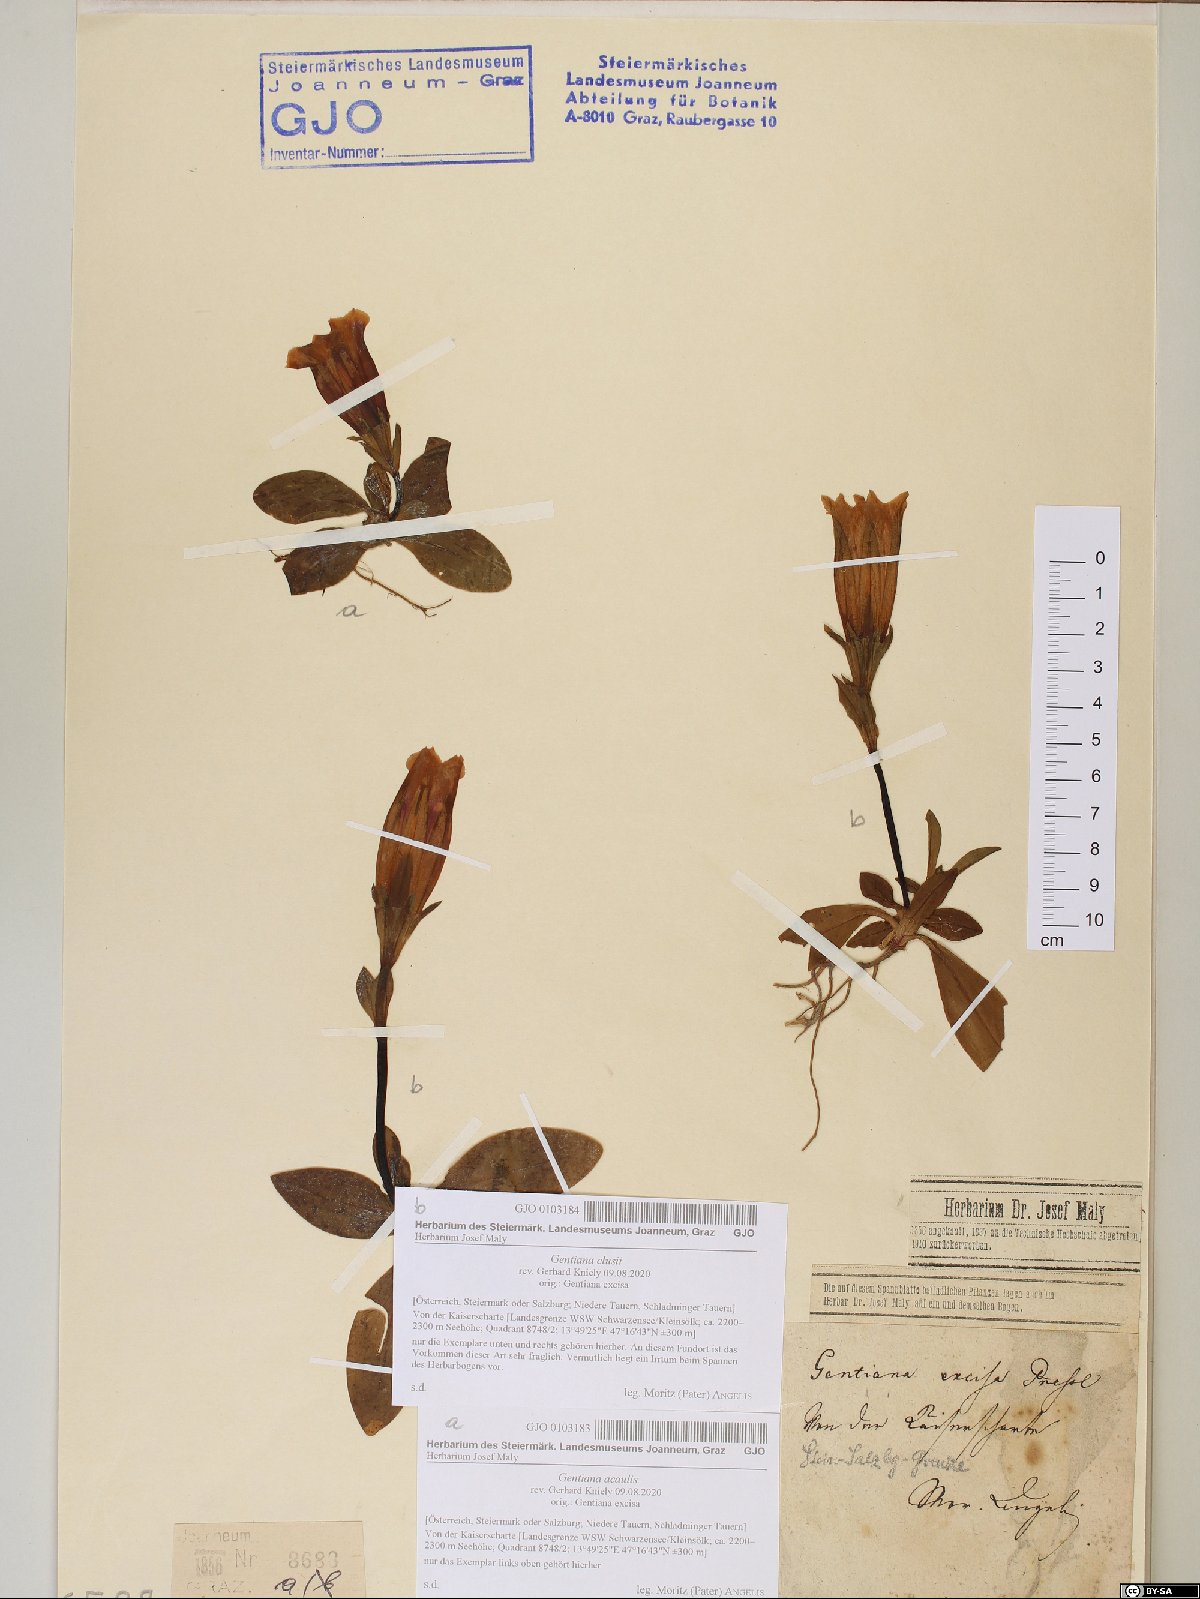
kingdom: Plantae
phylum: Tracheophyta
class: Magnoliopsida
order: Gentianales
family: Gentianaceae
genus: Gentiana
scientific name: Gentiana clusii
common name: Trumpet gentian
